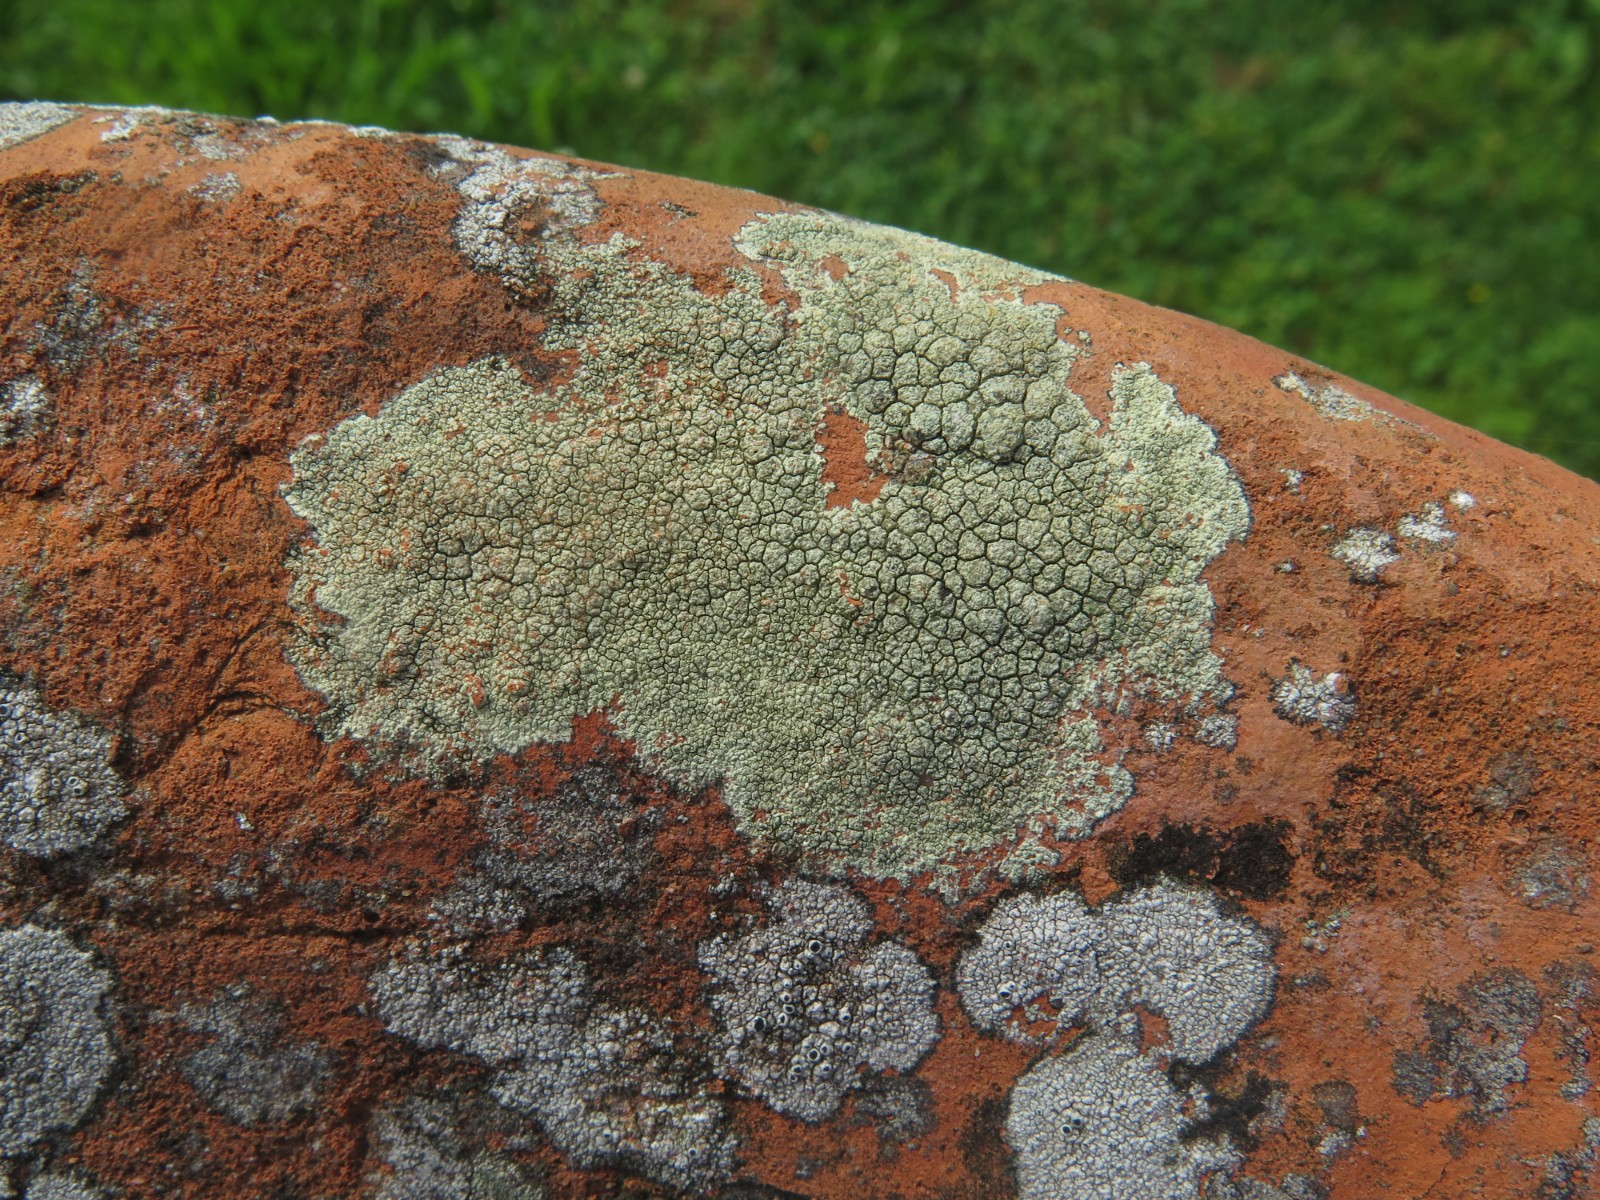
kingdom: Fungi
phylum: Ascomycota
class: Lecanoromycetes
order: Lecanorales
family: Lecanoraceae
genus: Glaucomaria
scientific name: Glaucomaria sulphurea
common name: svovlgul kantskivelav
